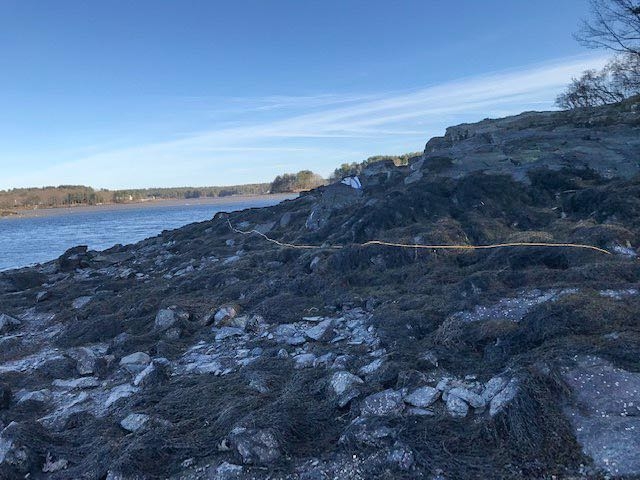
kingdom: Chromista
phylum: Ochrophyta
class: Phaeophyceae
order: Fucales
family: Fucaceae
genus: Ascophyllum
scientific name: Ascophyllum nodosum
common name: Rockweed
